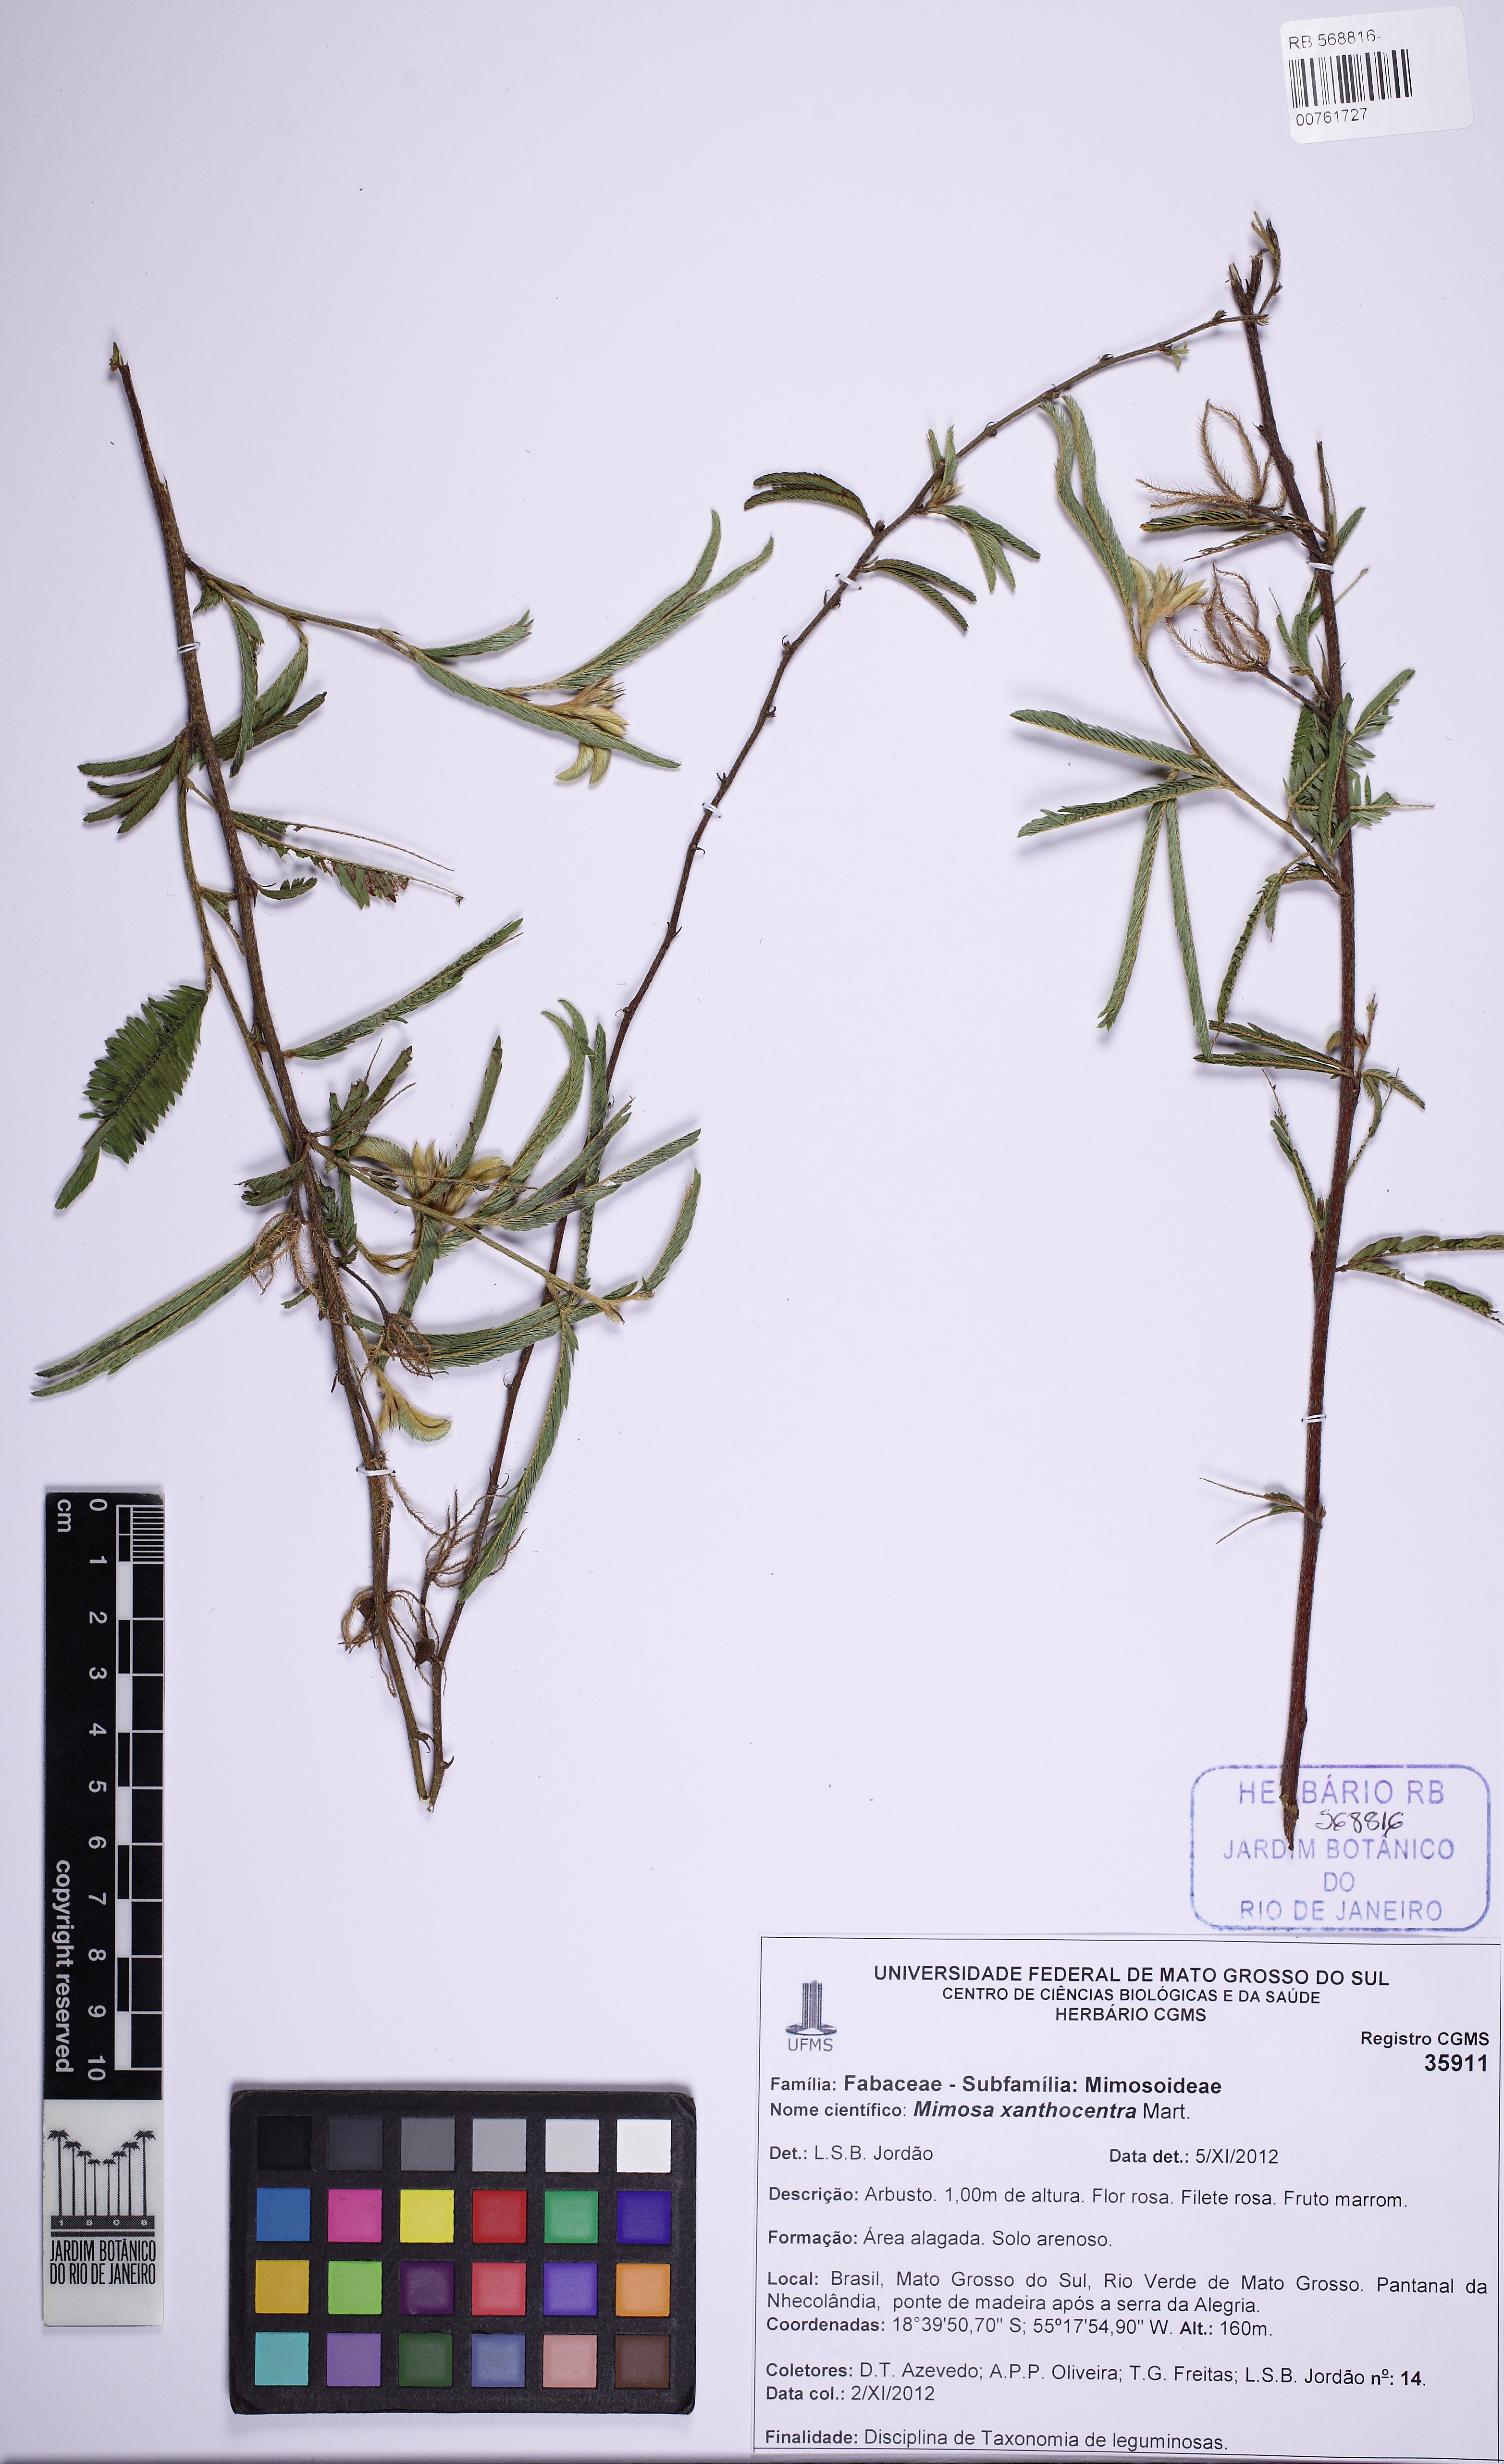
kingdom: Plantae
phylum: Tracheophyta
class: Magnoliopsida
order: Fabales
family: Fabaceae
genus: Mimosa
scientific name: Mimosa xanthocentra
